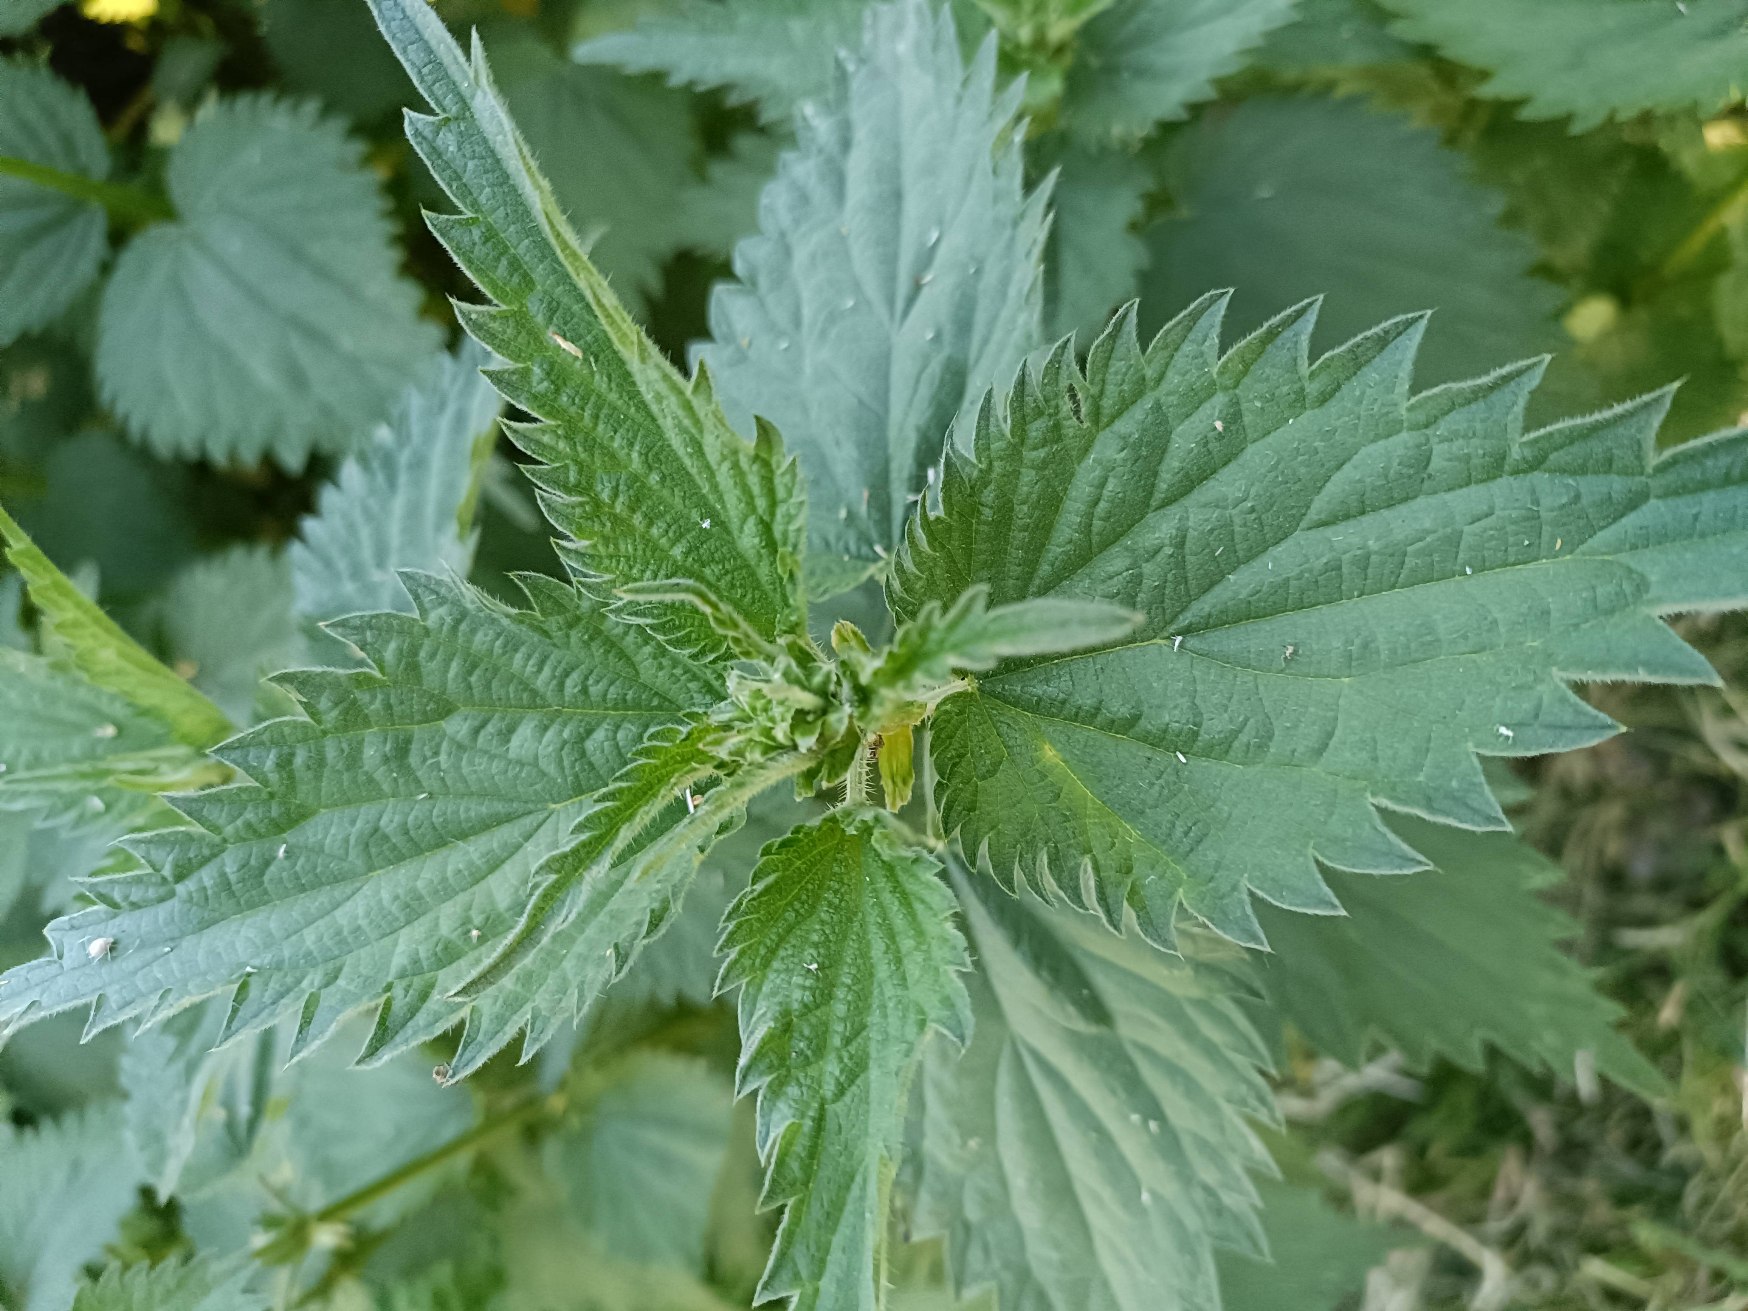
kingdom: Plantae
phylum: Tracheophyta
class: Magnoliopsida
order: Rosales
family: Urticaceae
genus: Urtica
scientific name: Urtica dioica
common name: Stor nælde
